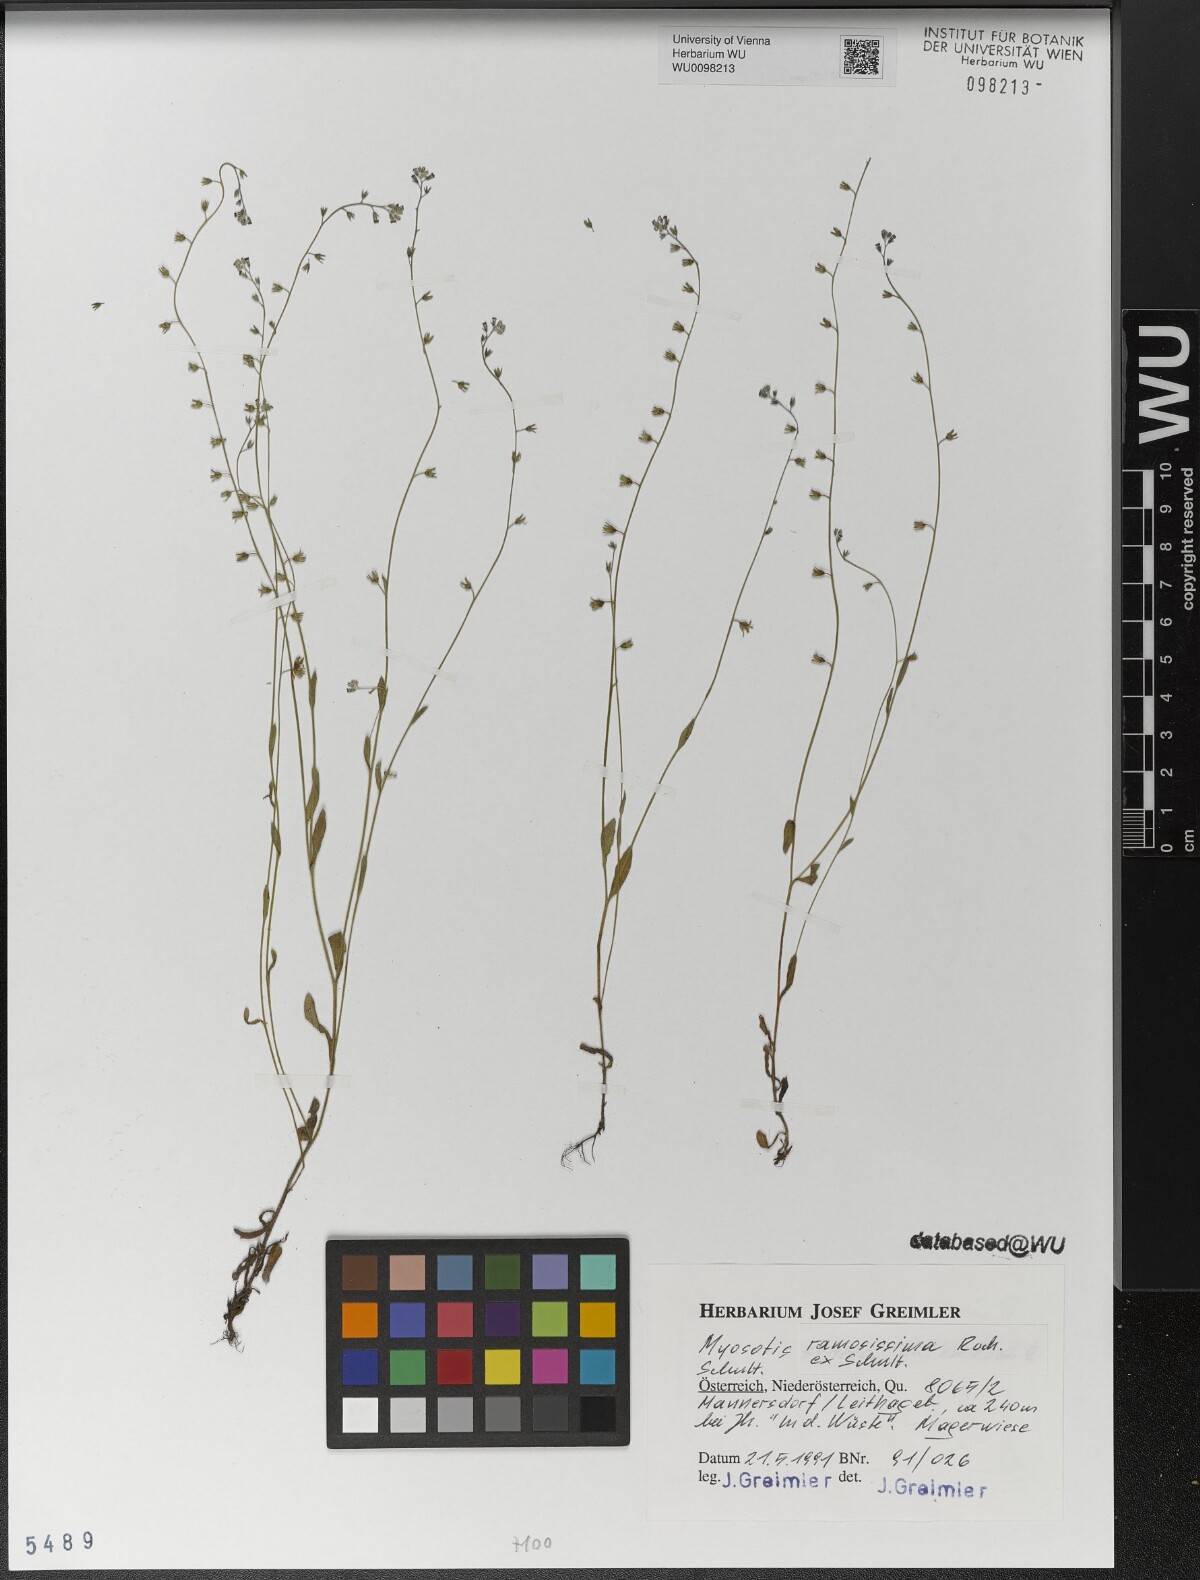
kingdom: Plantae
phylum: Tracheophyta
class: Magnoliopsida
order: Boraginales
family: Boraginaceae
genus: Myosotis
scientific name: Myosotis ramosissima
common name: Early forget-me-not
